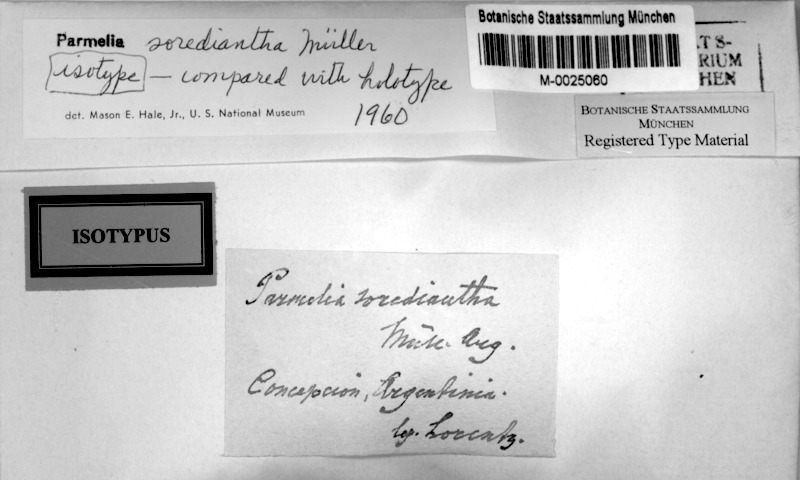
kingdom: Fungi
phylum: Ascomycota
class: Lecanoromycetes
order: Lecanorales
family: Parmeliaceae
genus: Xanthoparmelia
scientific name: Xanthoparmelia mougeotii
